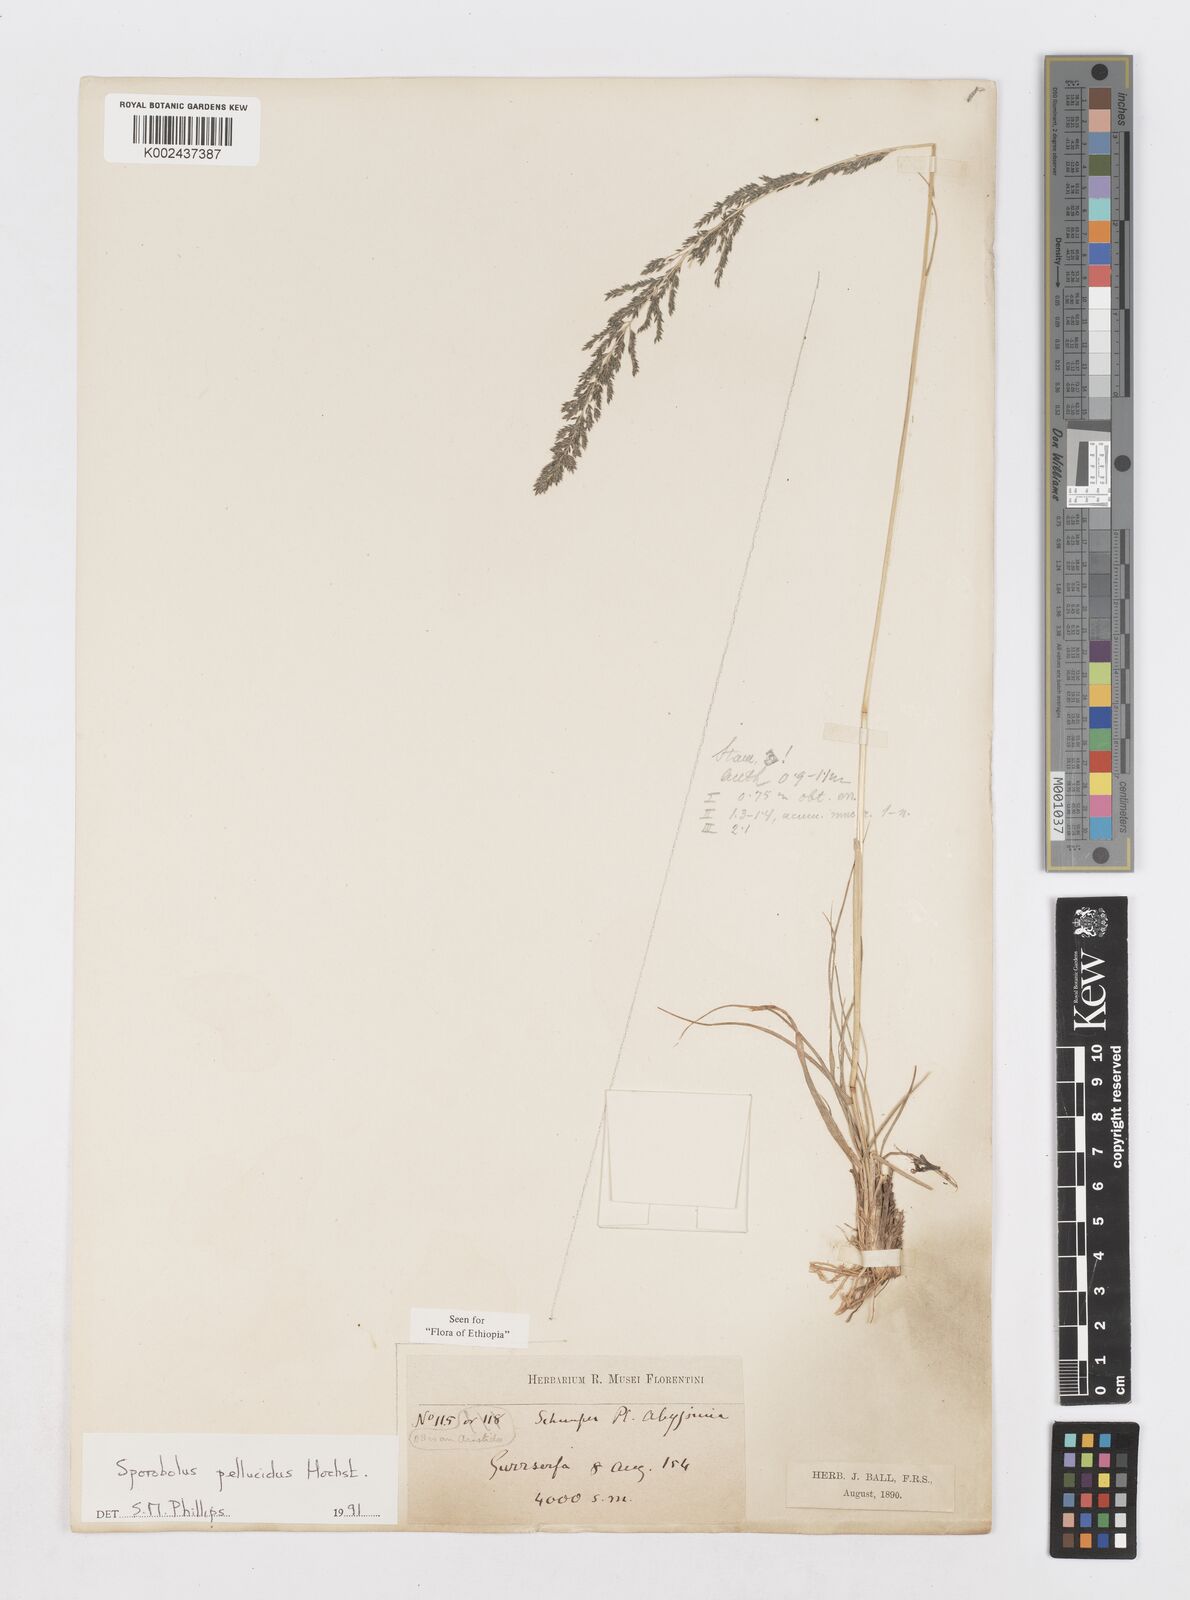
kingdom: Plantae
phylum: Tracheophyta
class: Liliopsida
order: Poales
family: Poaceae
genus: Sporobolus
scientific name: Sporobolus pellucidus
